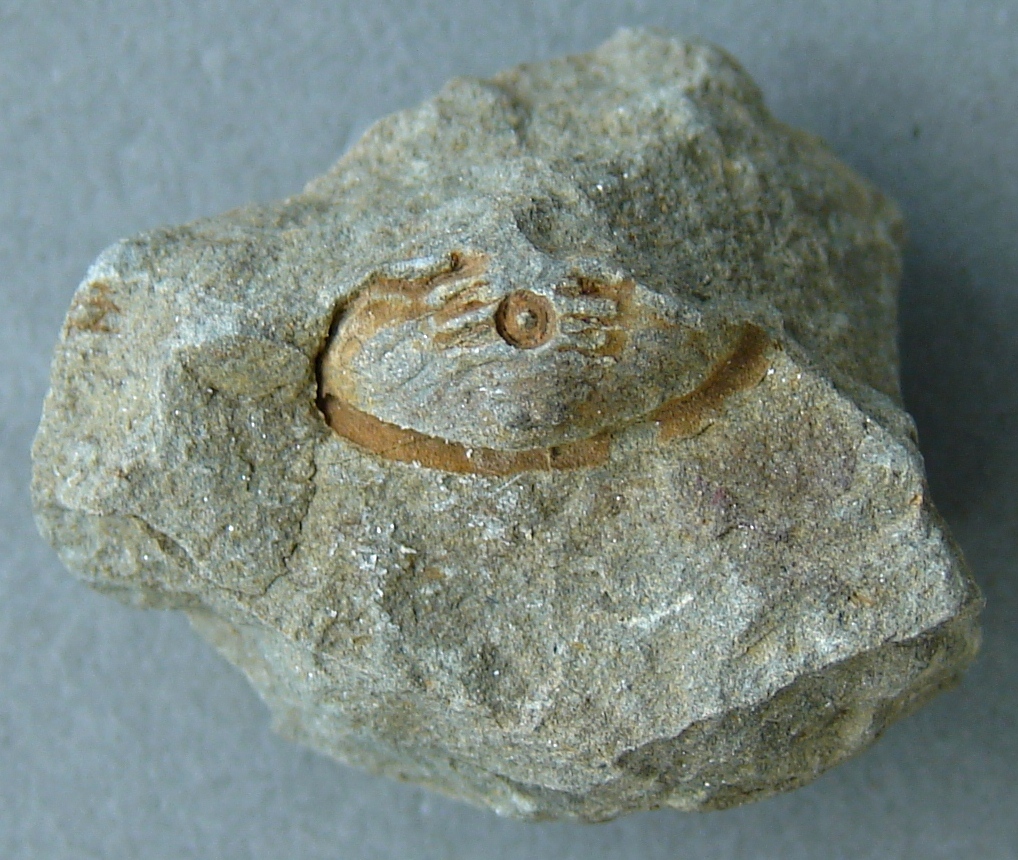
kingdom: Animalia
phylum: Arthropoda
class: Trilobita
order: Phacopida
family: Acastidae
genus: Acastoides
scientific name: Acastoides
